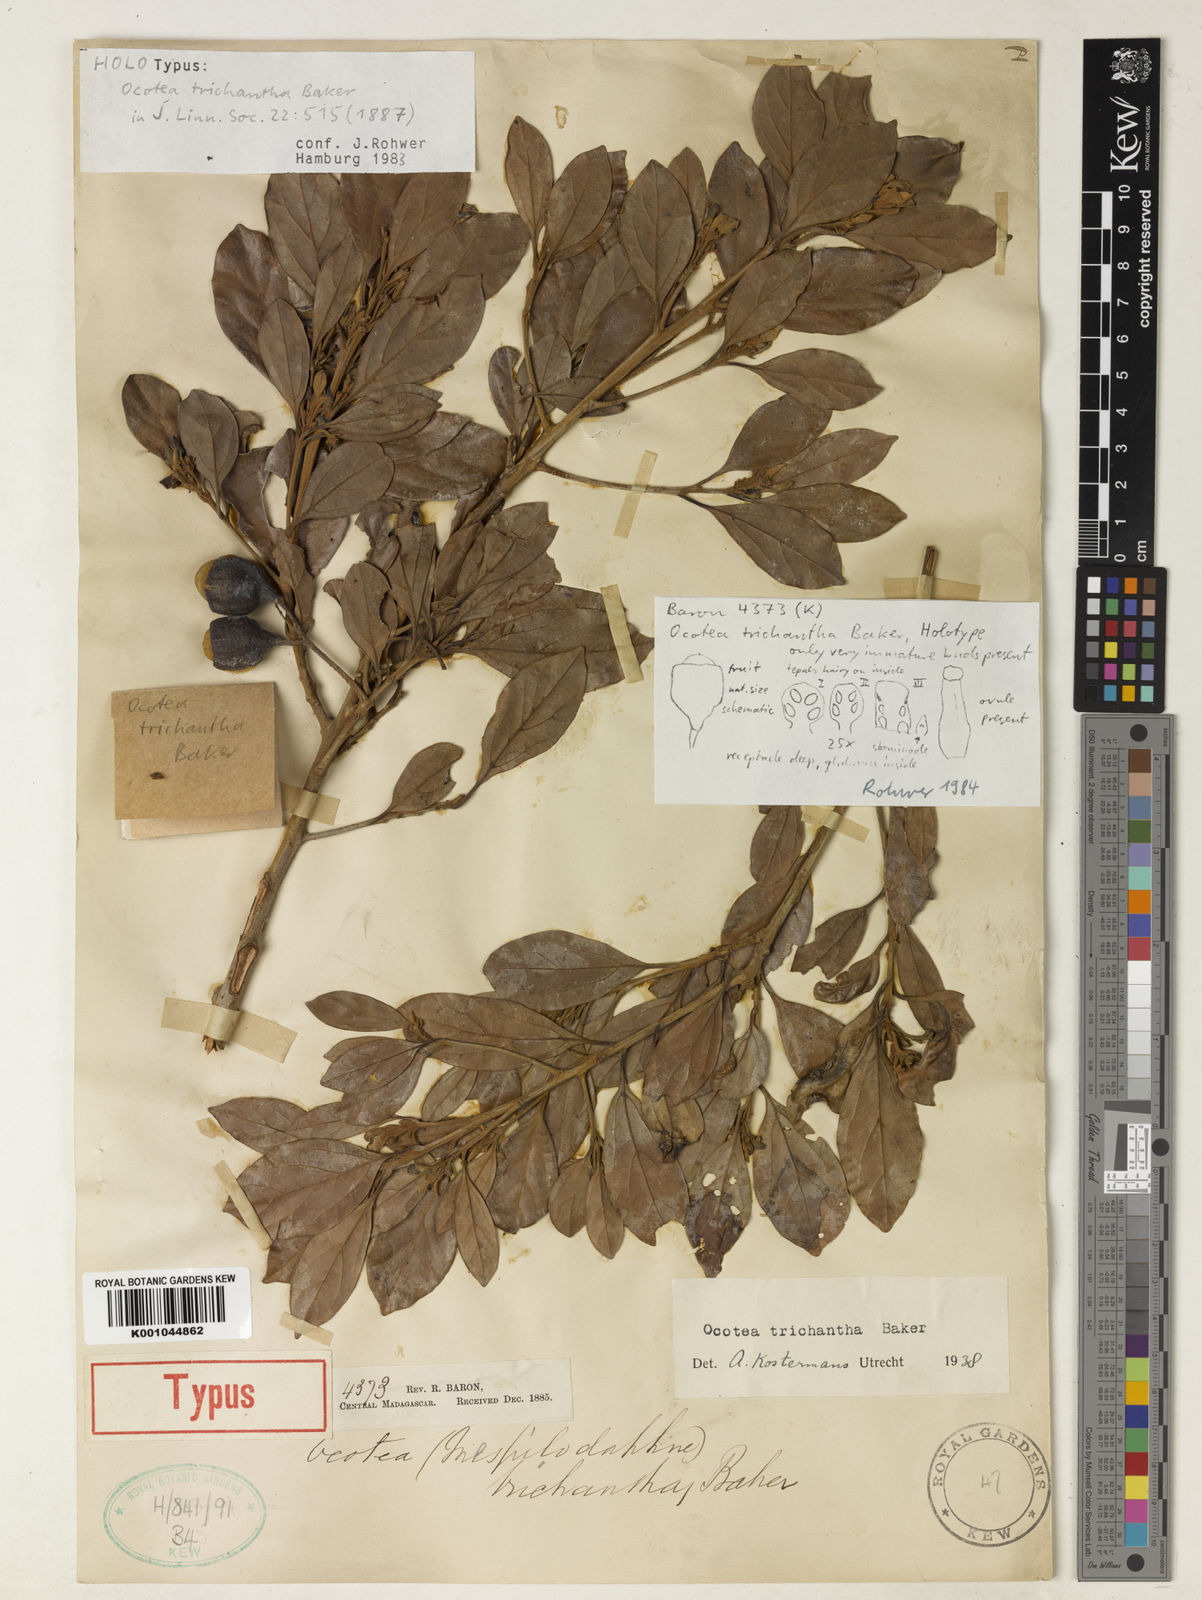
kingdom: Plantae
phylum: Tracheophyta
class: Magnoliopsida
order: Laurales
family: Lauraceae
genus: Mespilodaphne
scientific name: Mespilodaphne trichantha
